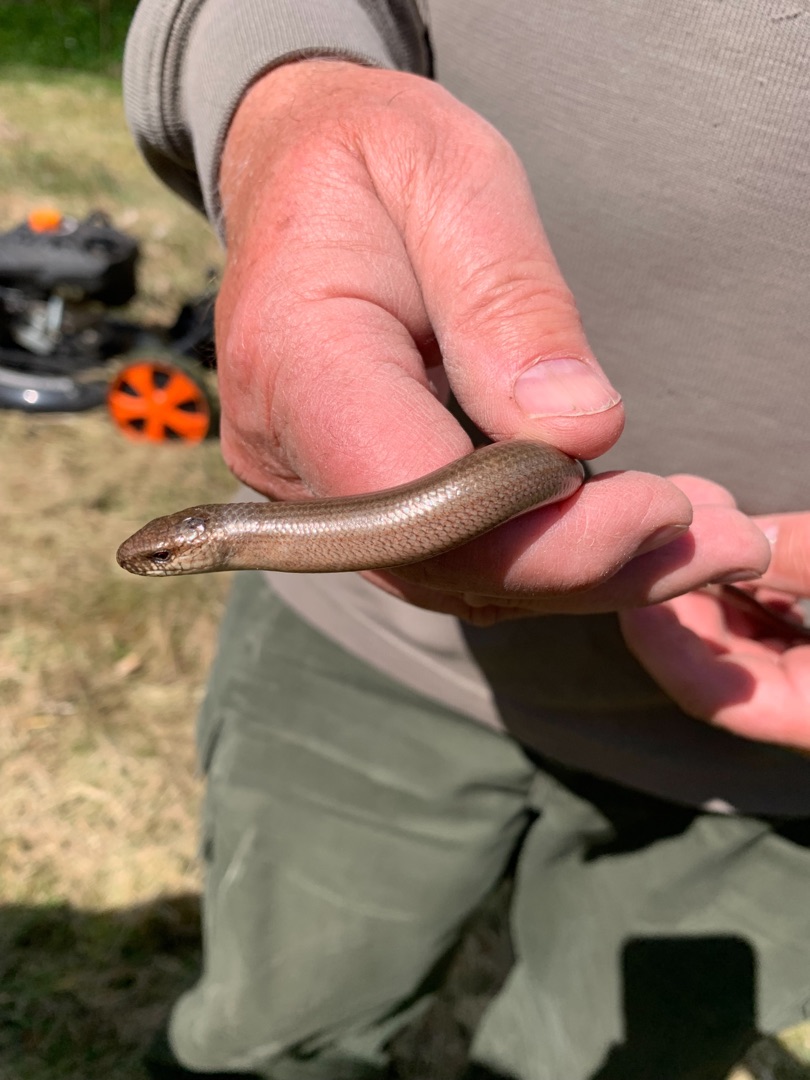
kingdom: Animalia
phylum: Chordata
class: Squamata
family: Anguidae
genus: Anguis
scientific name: Anguis fragilis
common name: Stålorm
